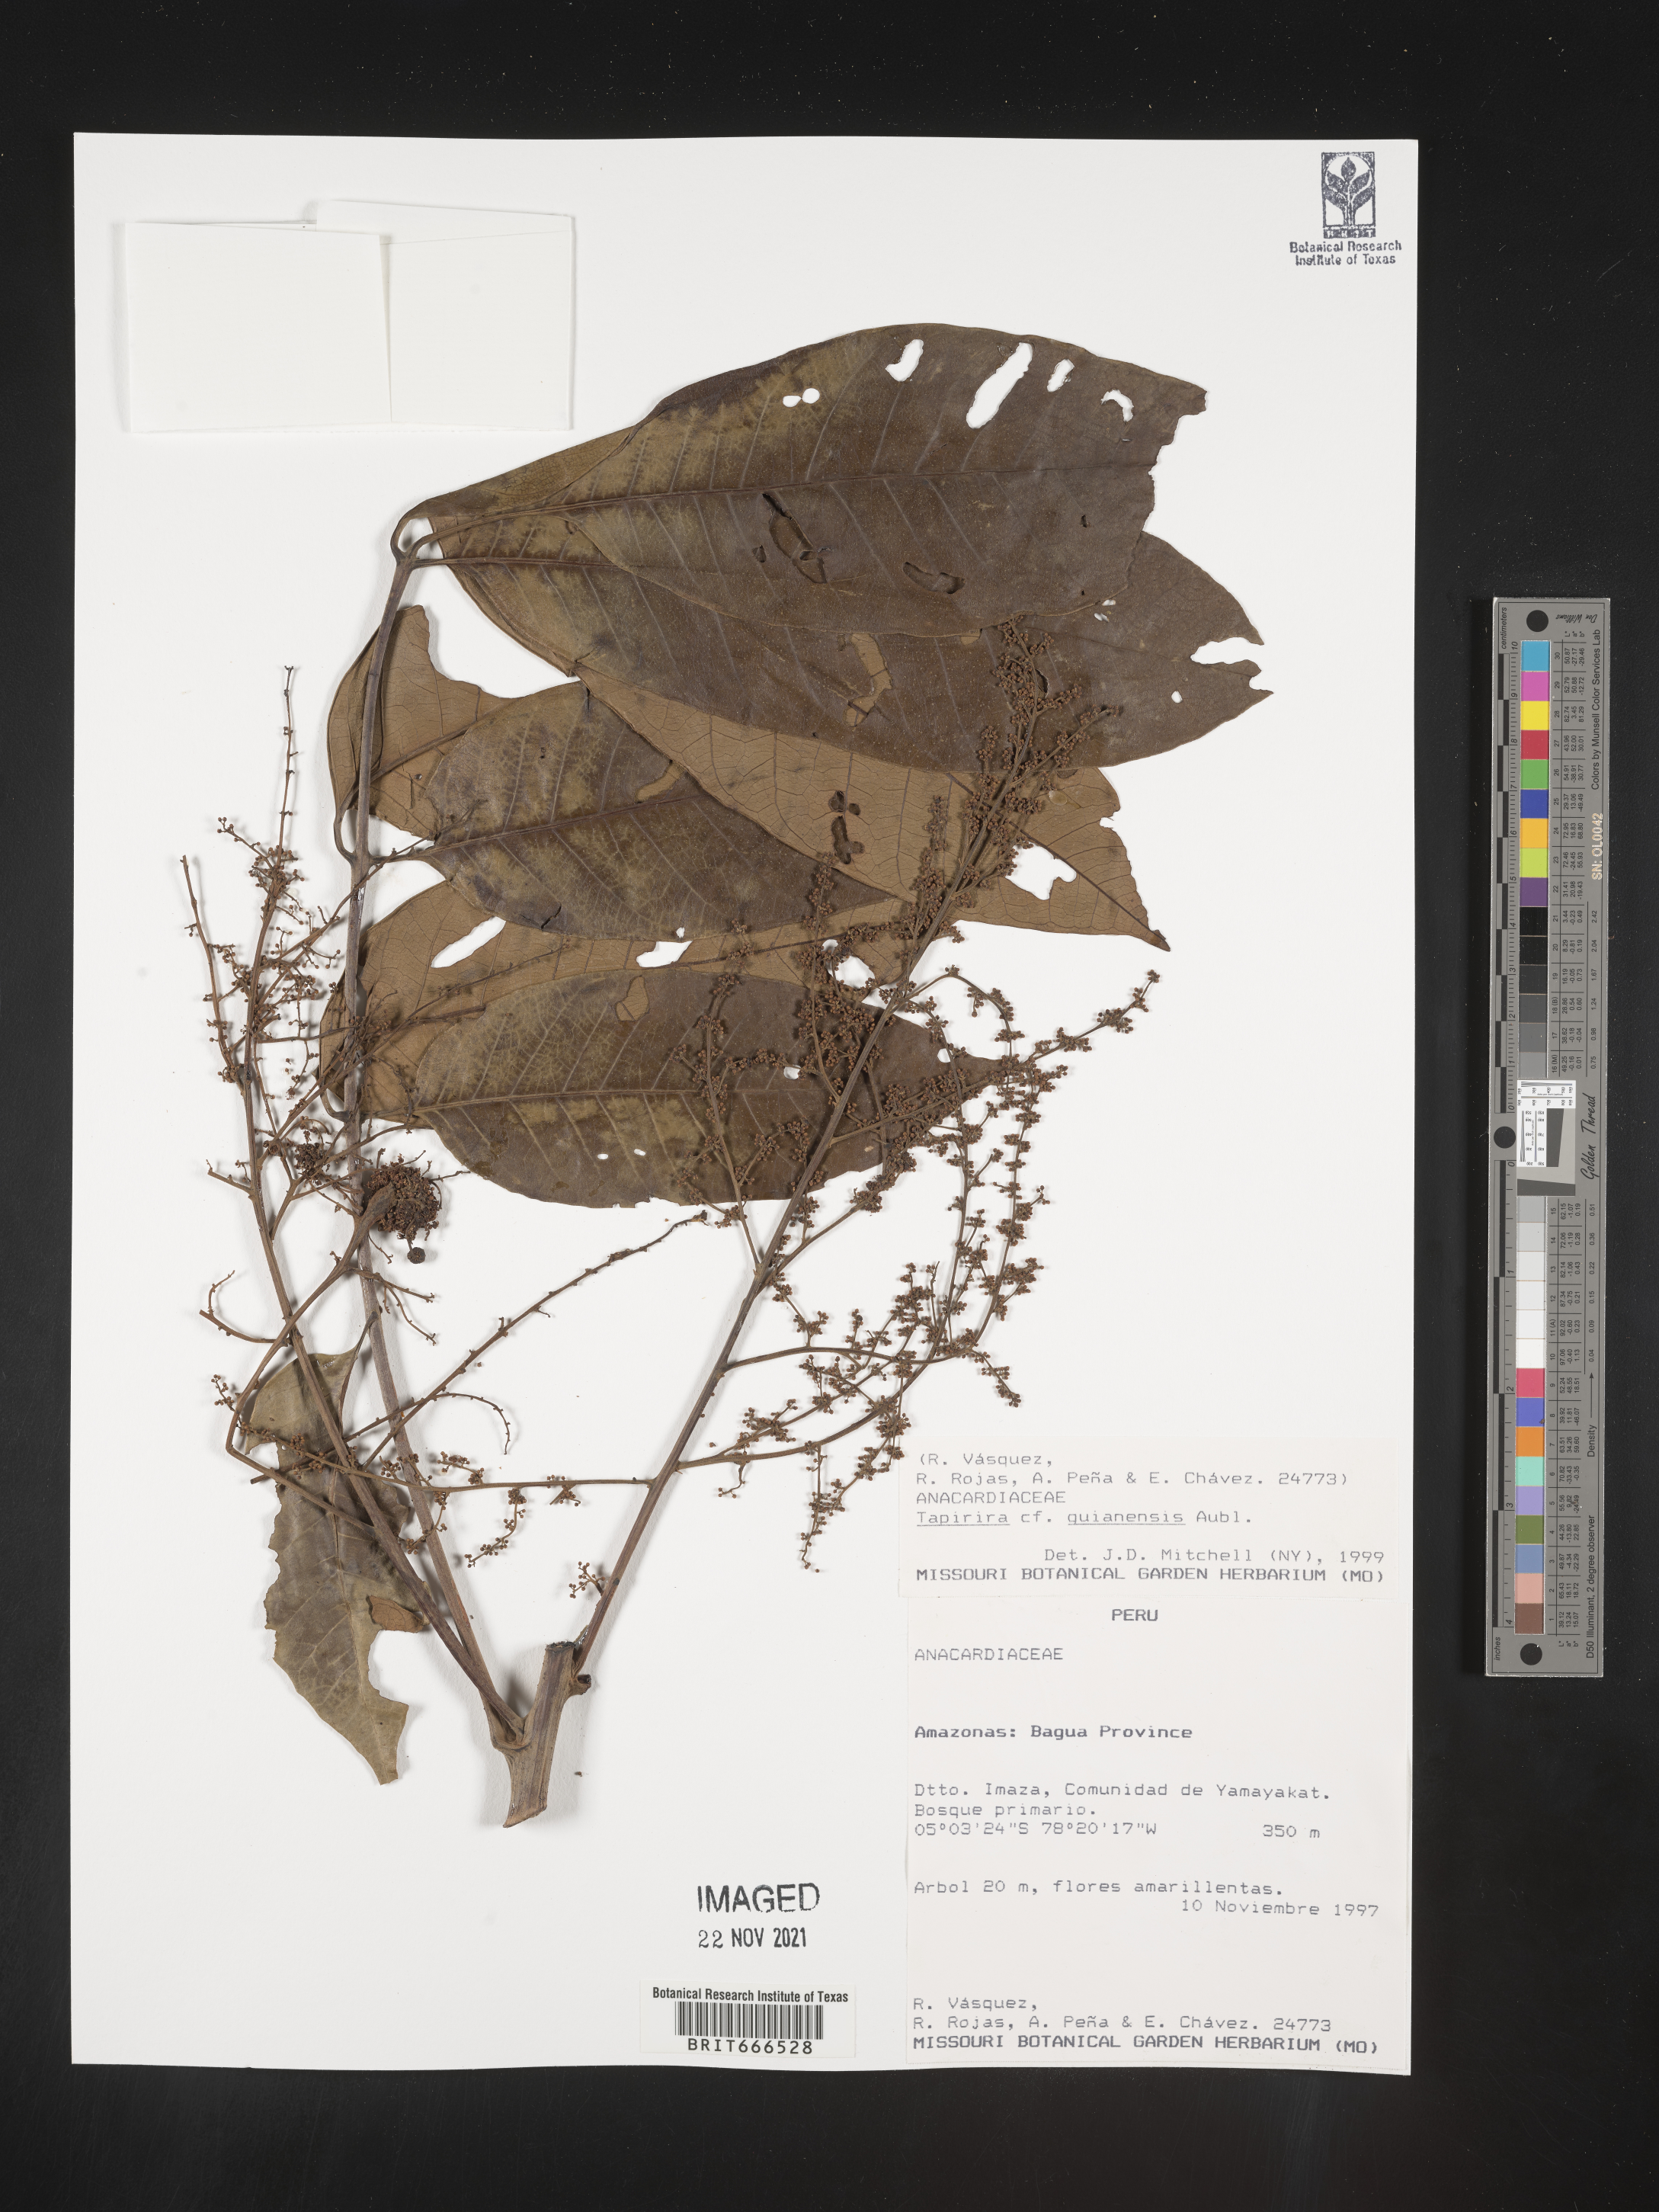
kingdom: Plantae
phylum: Tracheophyta
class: Magnoliopsida
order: Sapindales
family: Anacardiaceae
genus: Tapirira
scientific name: Tapirira
